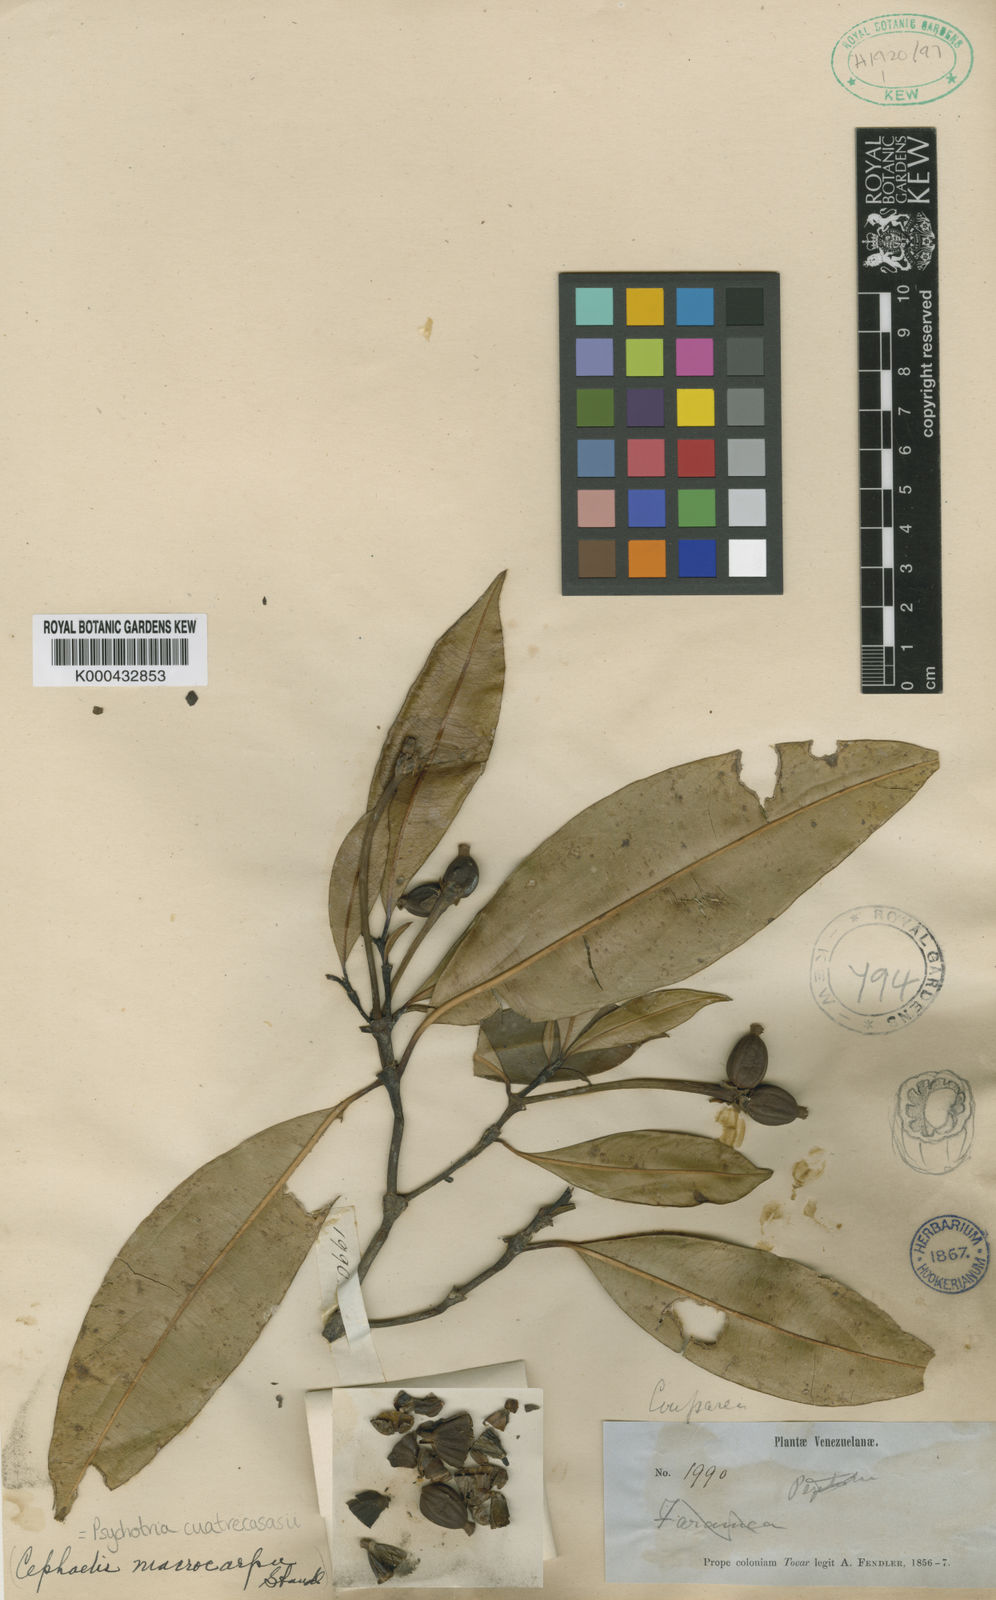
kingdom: Plantae
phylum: Tracheophyta
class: Magnoliopsida
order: Gentianales
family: Rubiaceae
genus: Palicourea
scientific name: Palicourea arenosa
